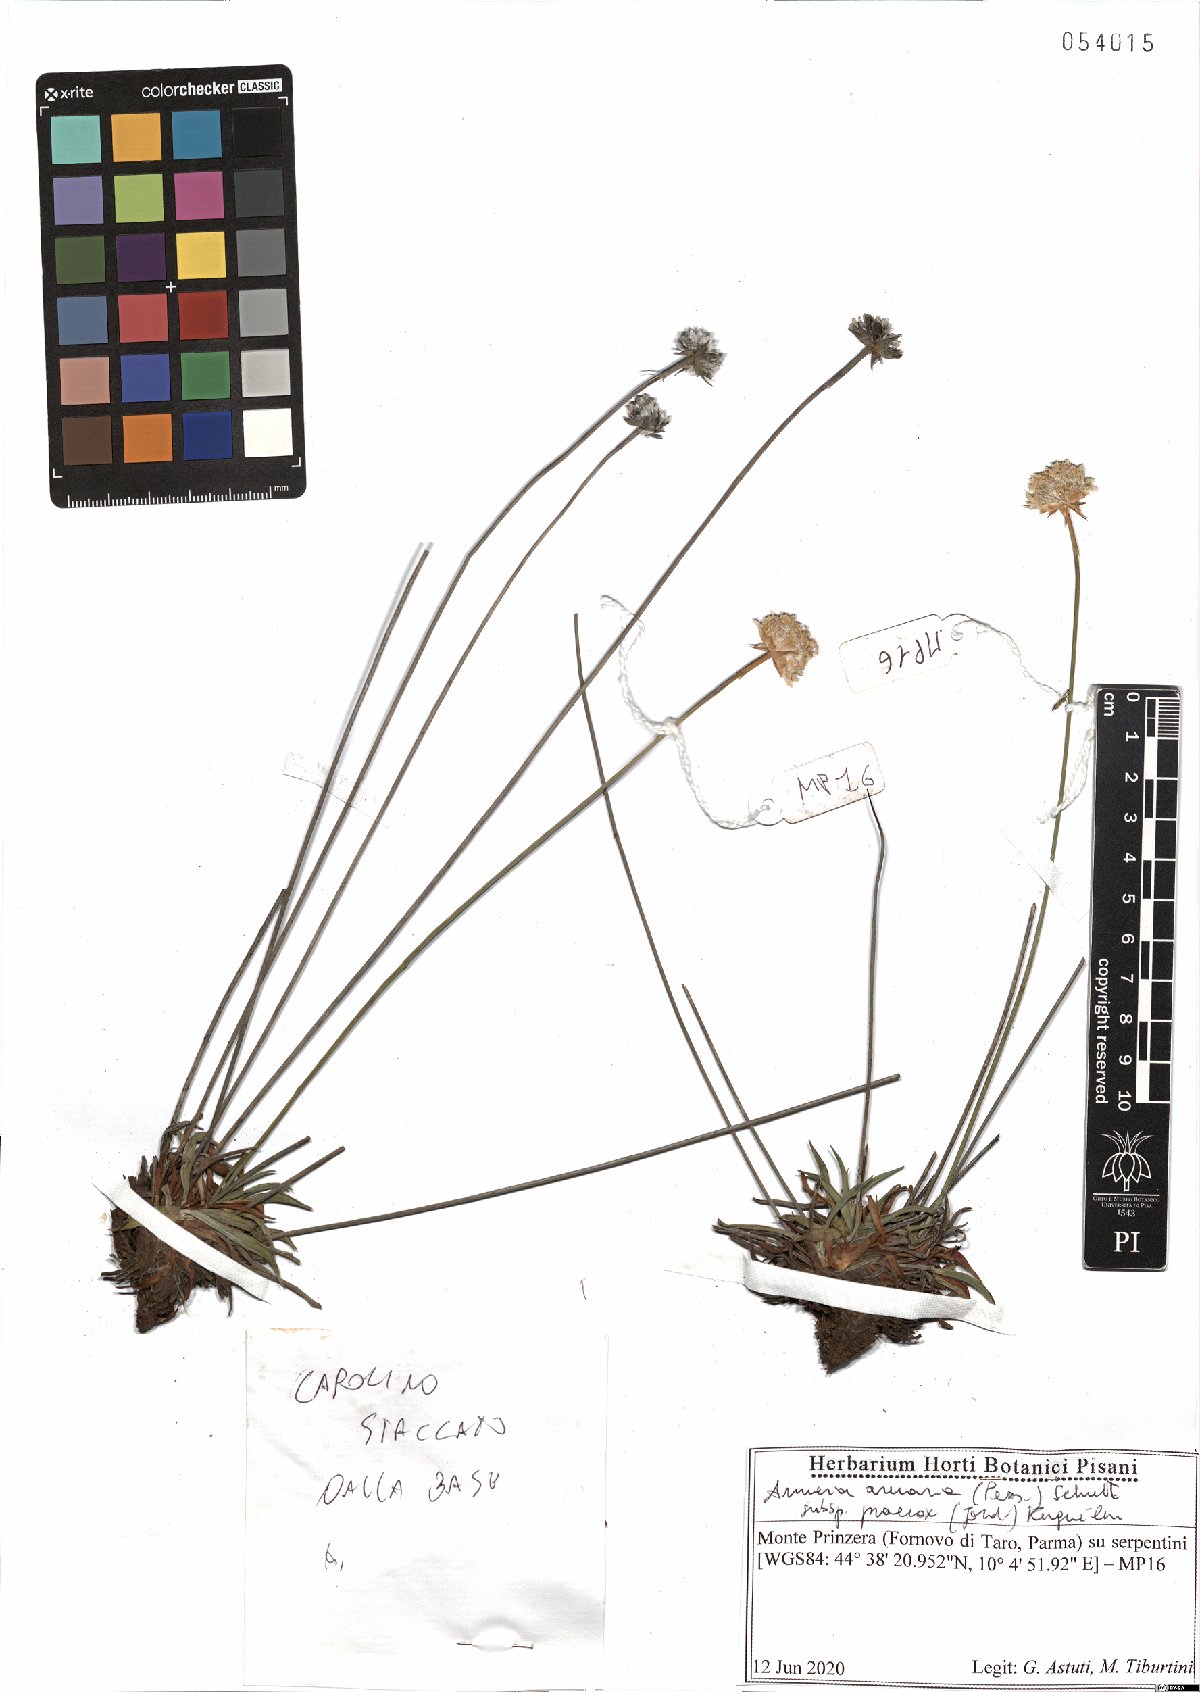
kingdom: Plantae
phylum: Tracheophyta
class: Magnoliopsida
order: Caryophyllales
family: Plumbaginaceae
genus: Armeria
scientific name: Armeria arenaria
